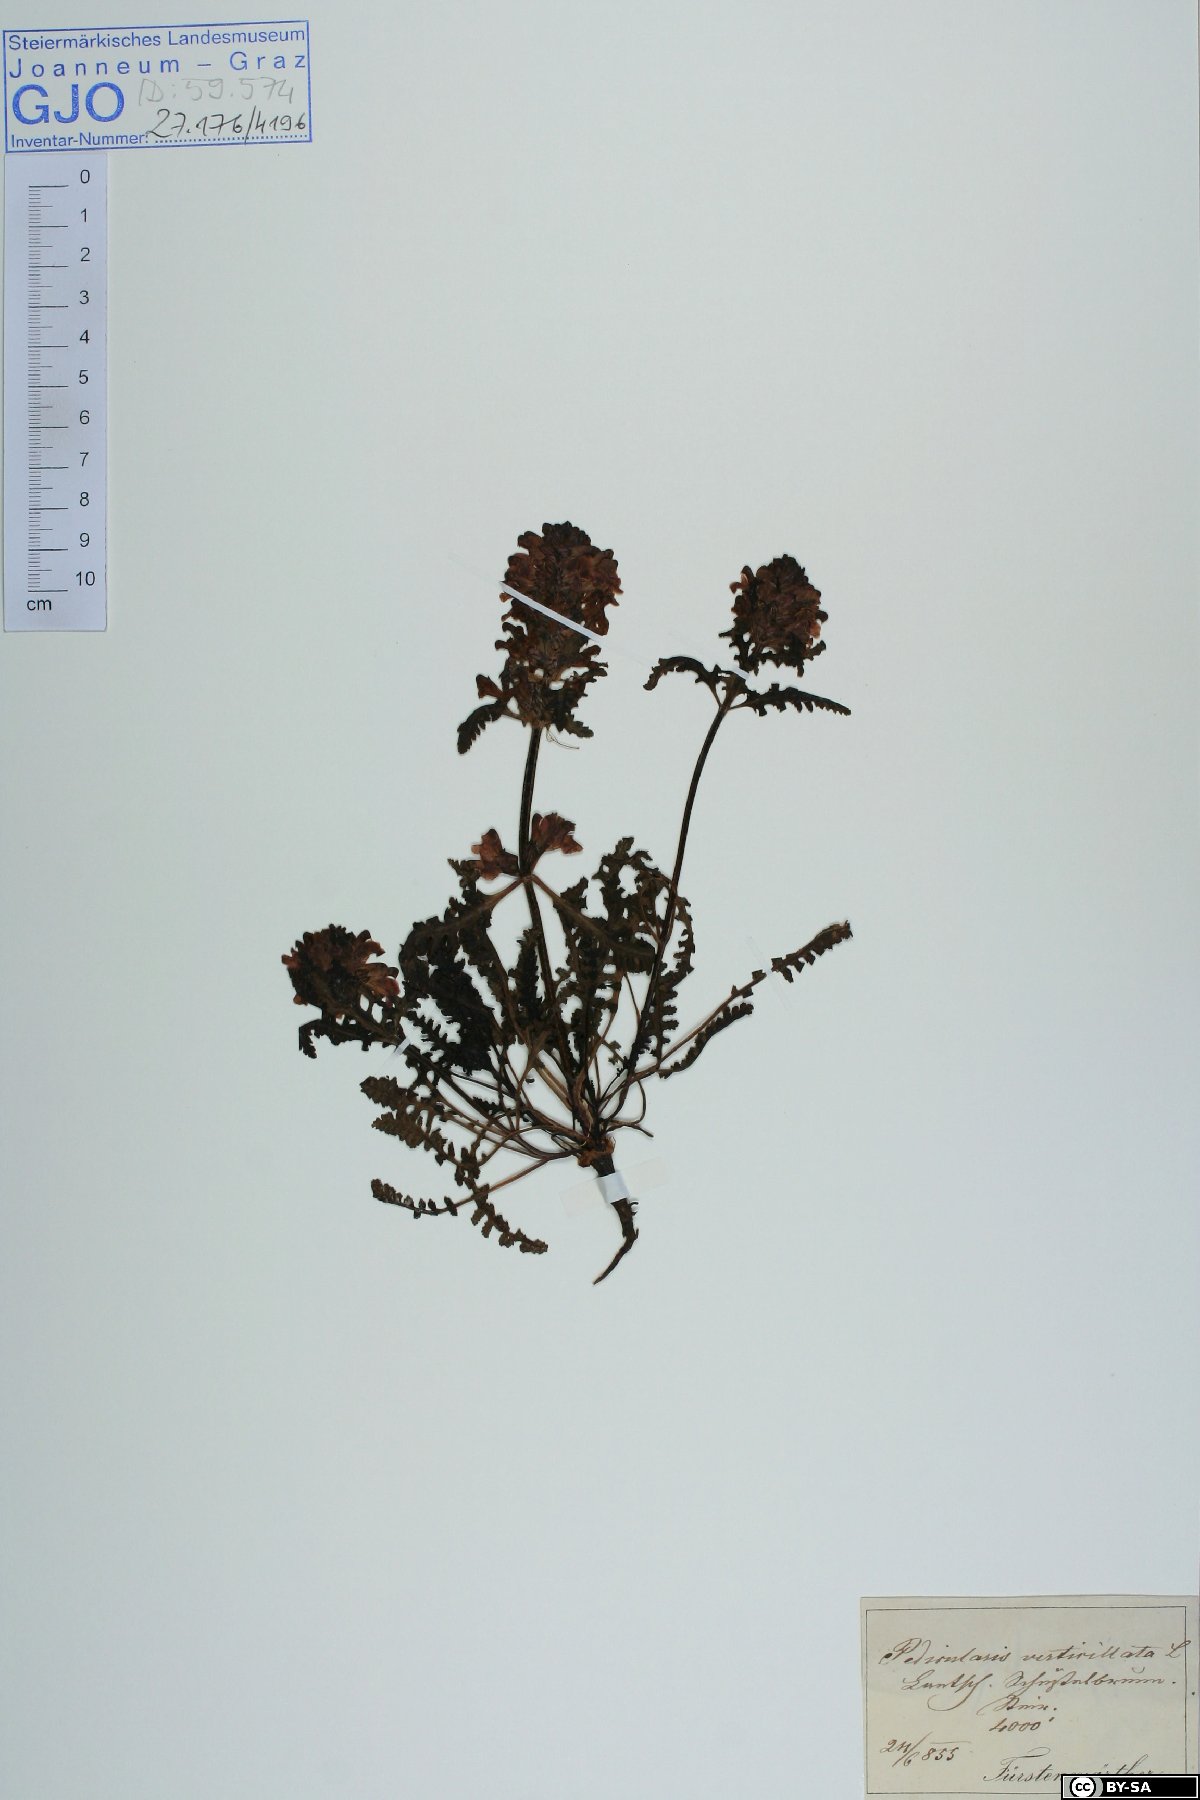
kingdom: Plantae
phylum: Tracheophyta
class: Magnoliopsida
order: Lamiales
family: Orobanchaceae
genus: Pedicularis
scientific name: Pedicularis verticillata
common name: Whorled lousewort
